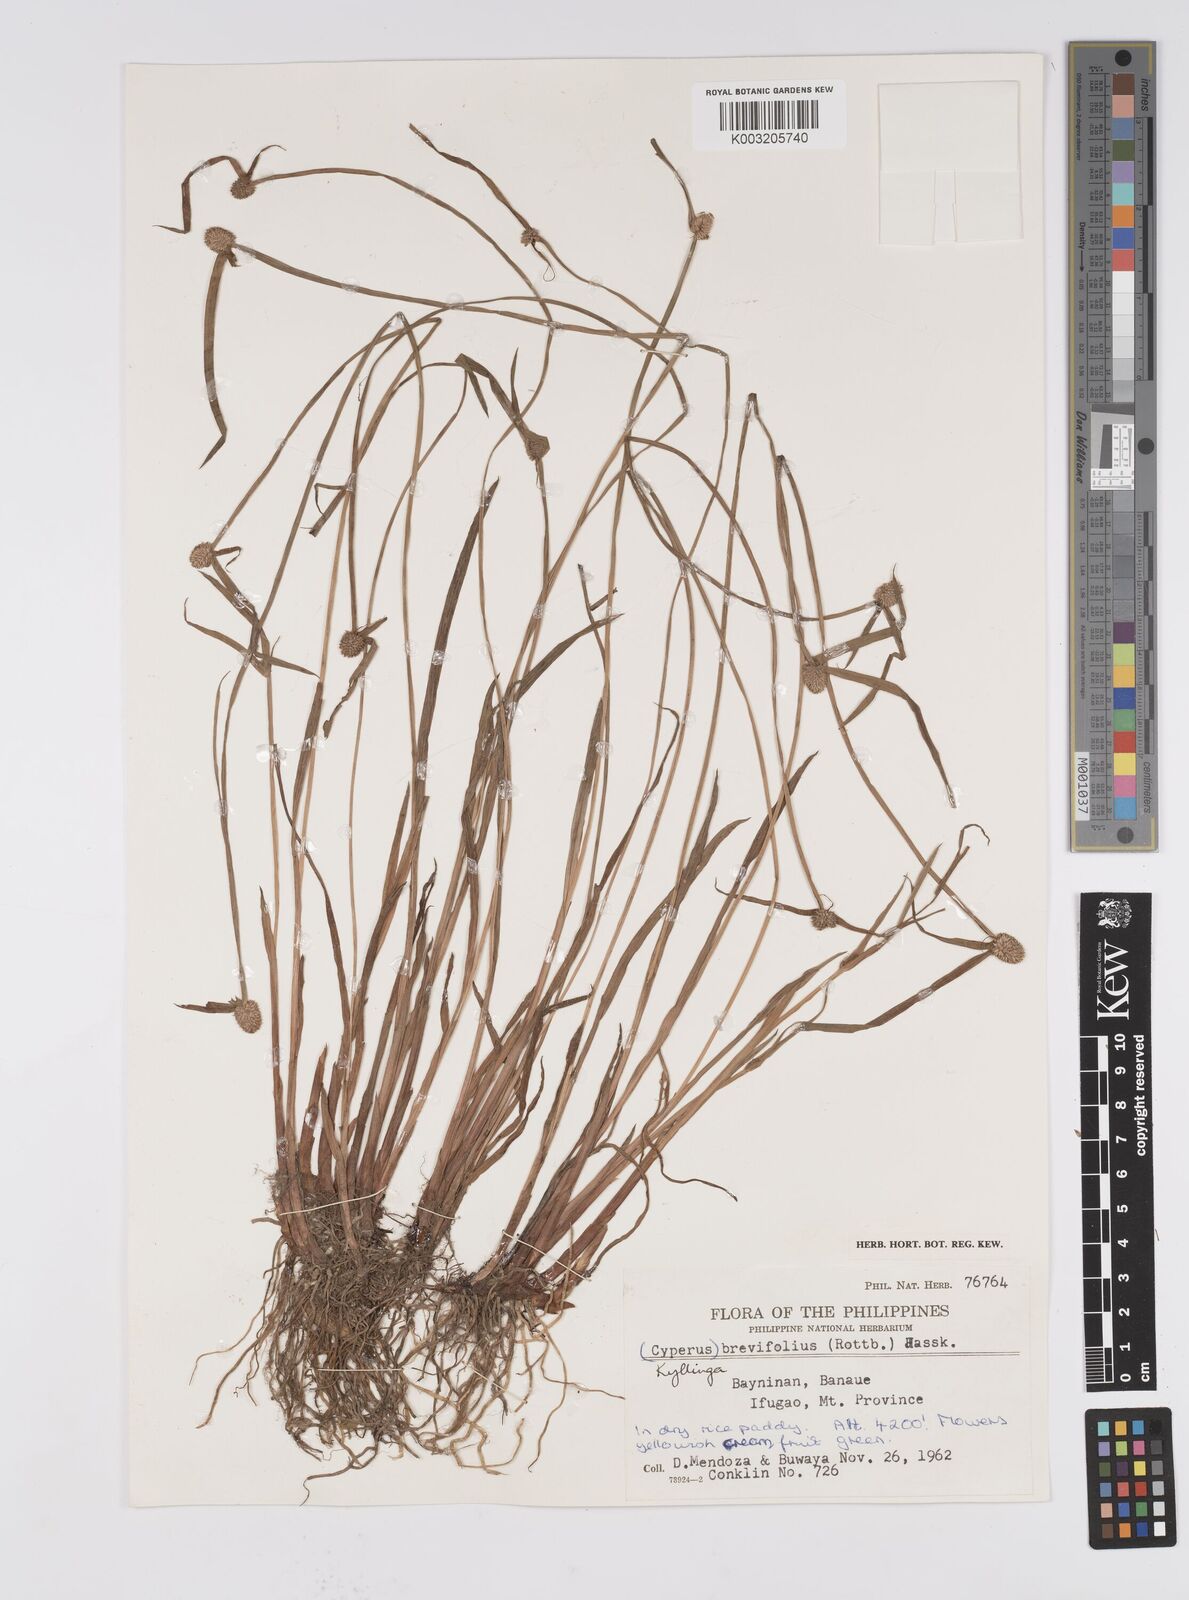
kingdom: Plantae
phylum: Tracheophyta
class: Liliopsida
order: Poales
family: Cyperaceae
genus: Cyperus
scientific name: Cyperus melanospermus
